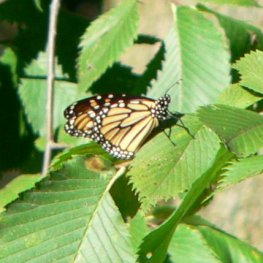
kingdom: Animalia
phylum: Arthropoda
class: Insecta
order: Lepidoptera
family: Nymphalidae
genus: Danaus
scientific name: Danaus plexippus
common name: Monarch
